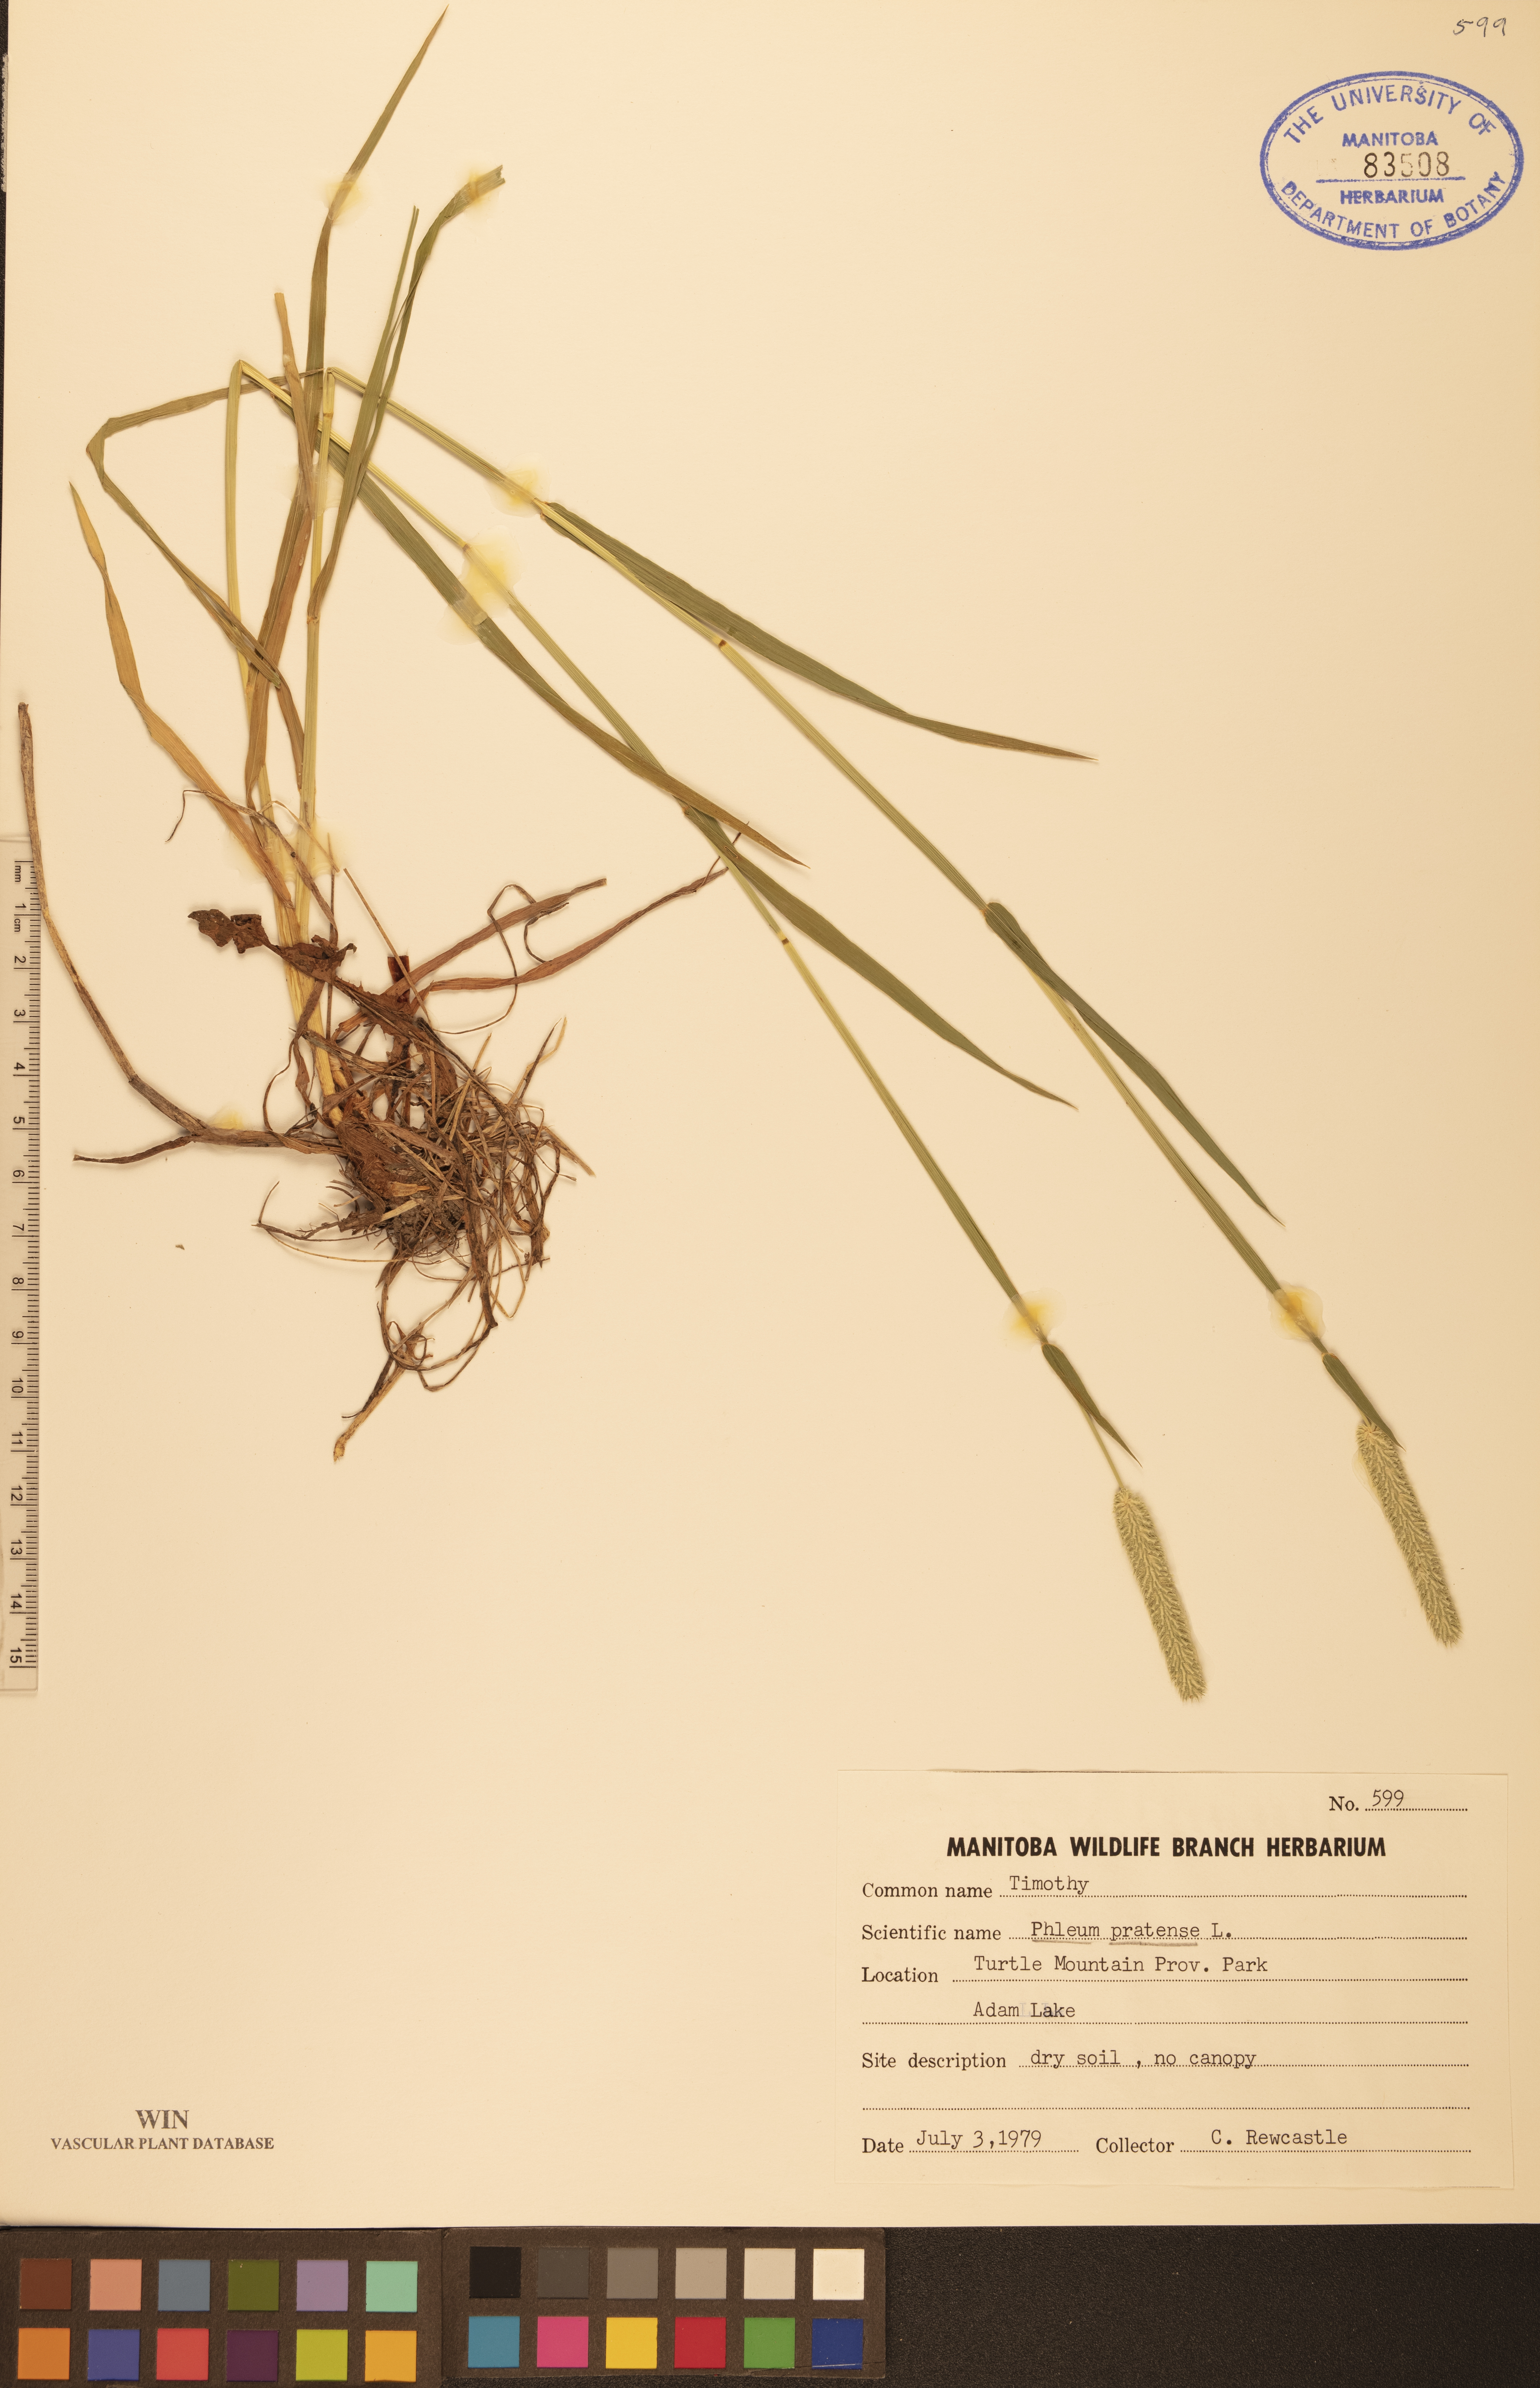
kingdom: Plantae
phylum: Tracheophyta
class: Liliopsida
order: Poales
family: Poaceae
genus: Phleum
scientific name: Phleum pratense
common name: Timothy grass
